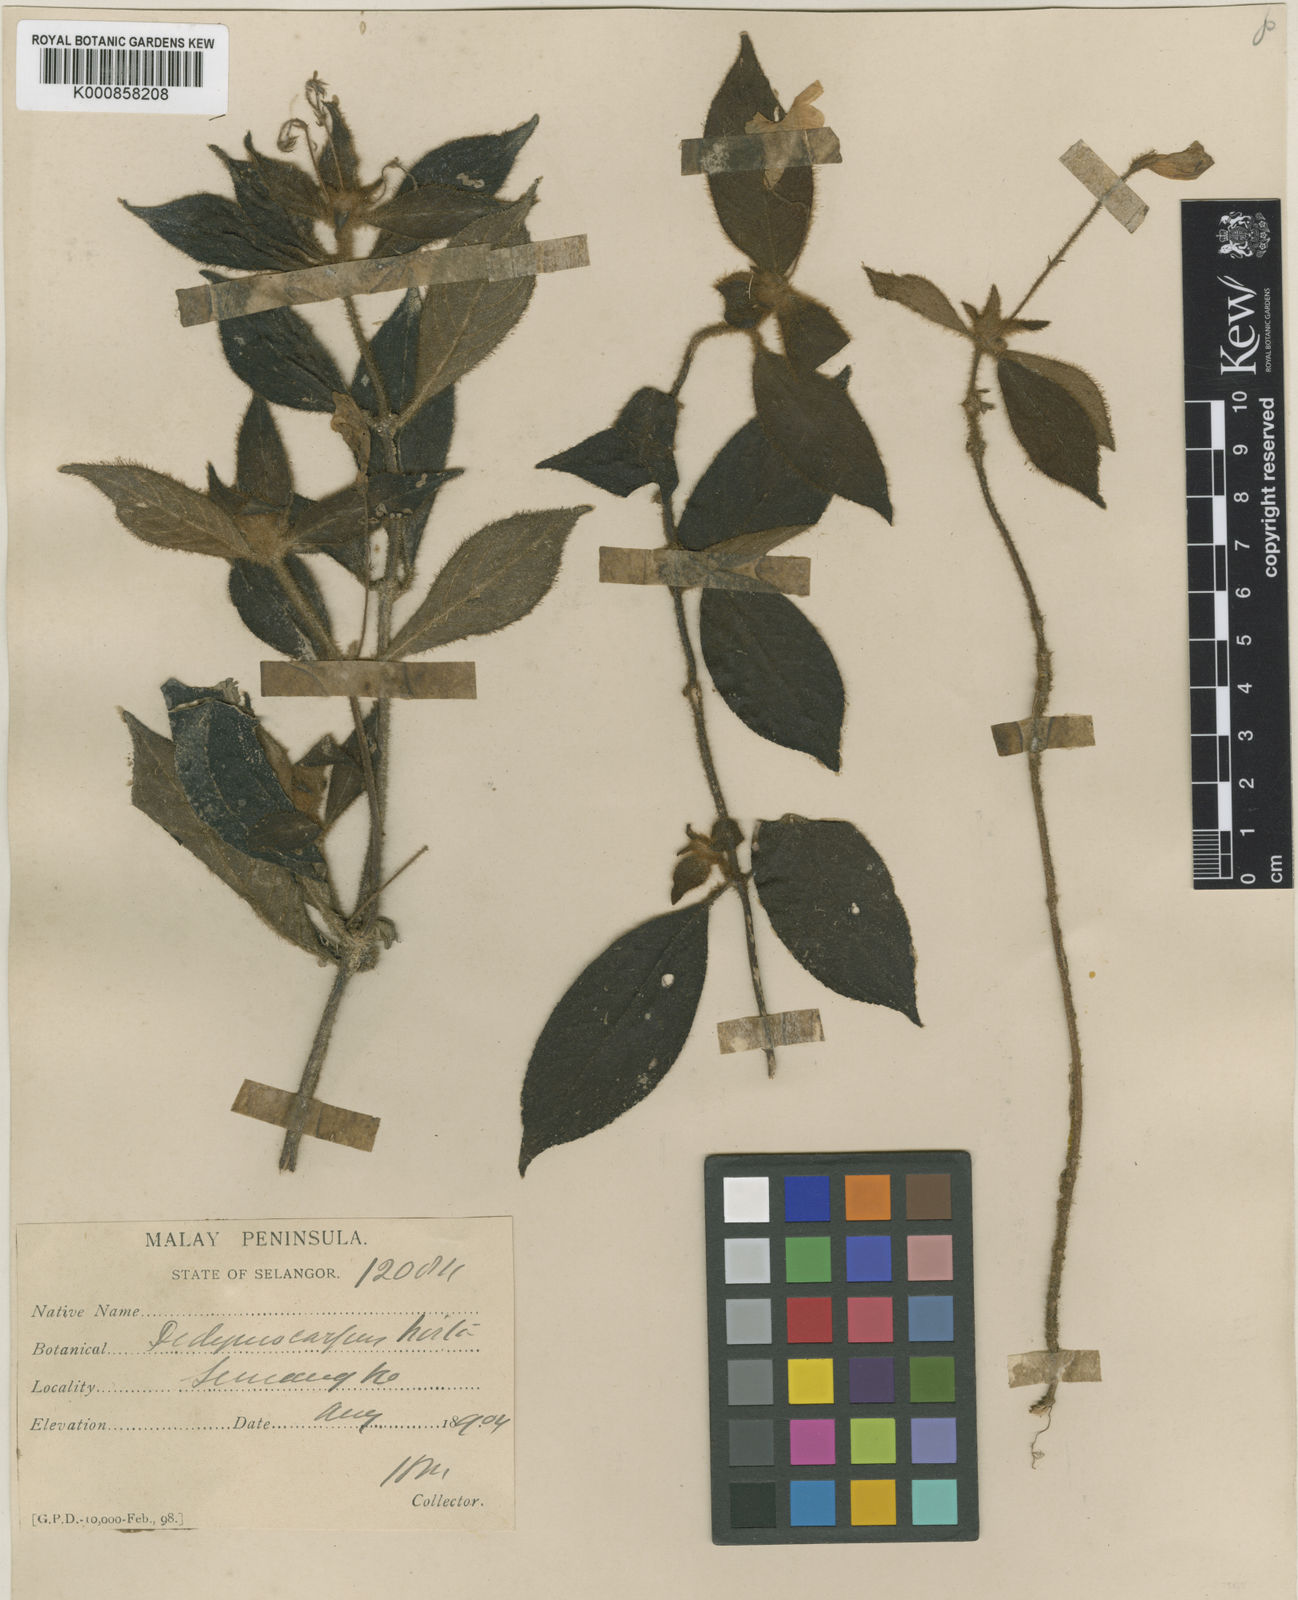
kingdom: Plantae
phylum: Tracheophyta
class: Magnoliopsida
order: Lamiales
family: Gesneriaceae
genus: Codonoboea
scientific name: Codonoboea hirta
